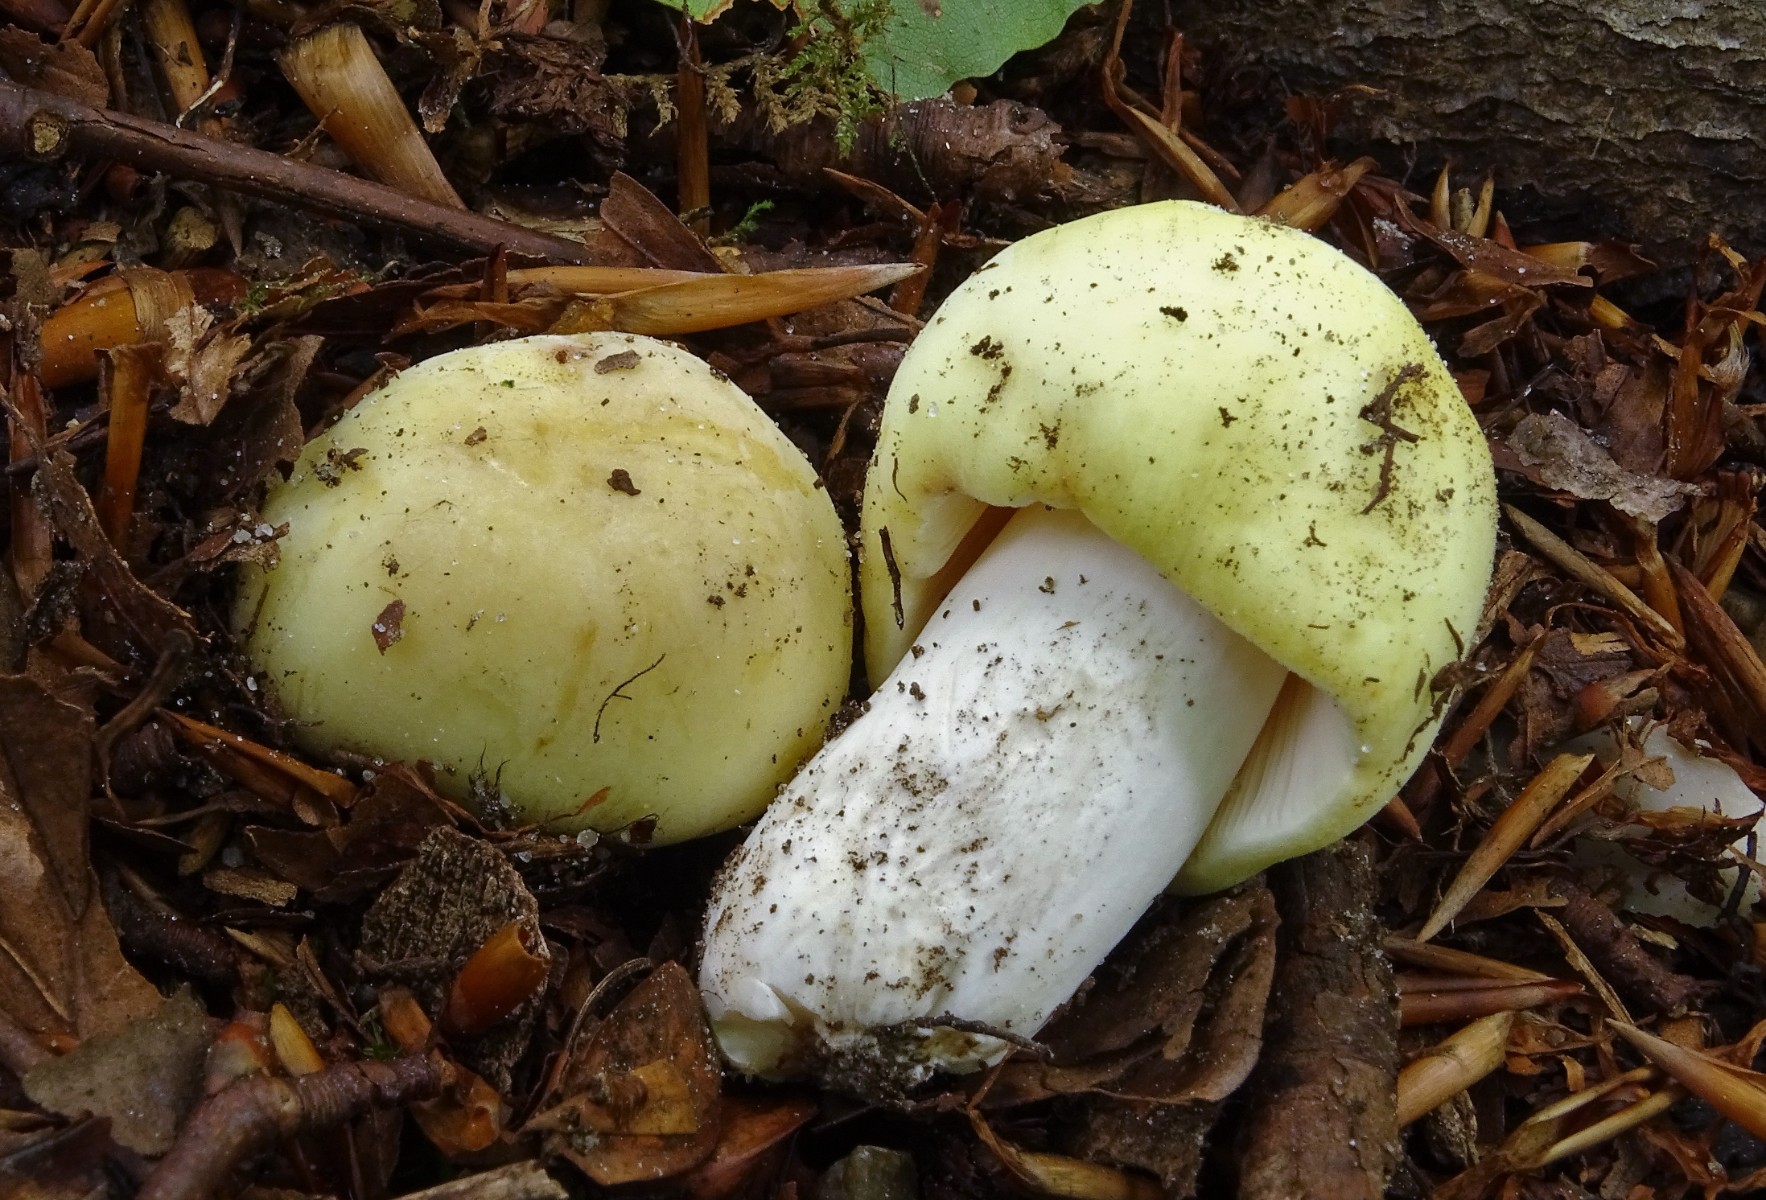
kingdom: Fungi
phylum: Basidiomycota
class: Agaricomycetes
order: Russulales
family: Russulaceae
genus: Russula
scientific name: Russula violeipes
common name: ferskengul skørhat
